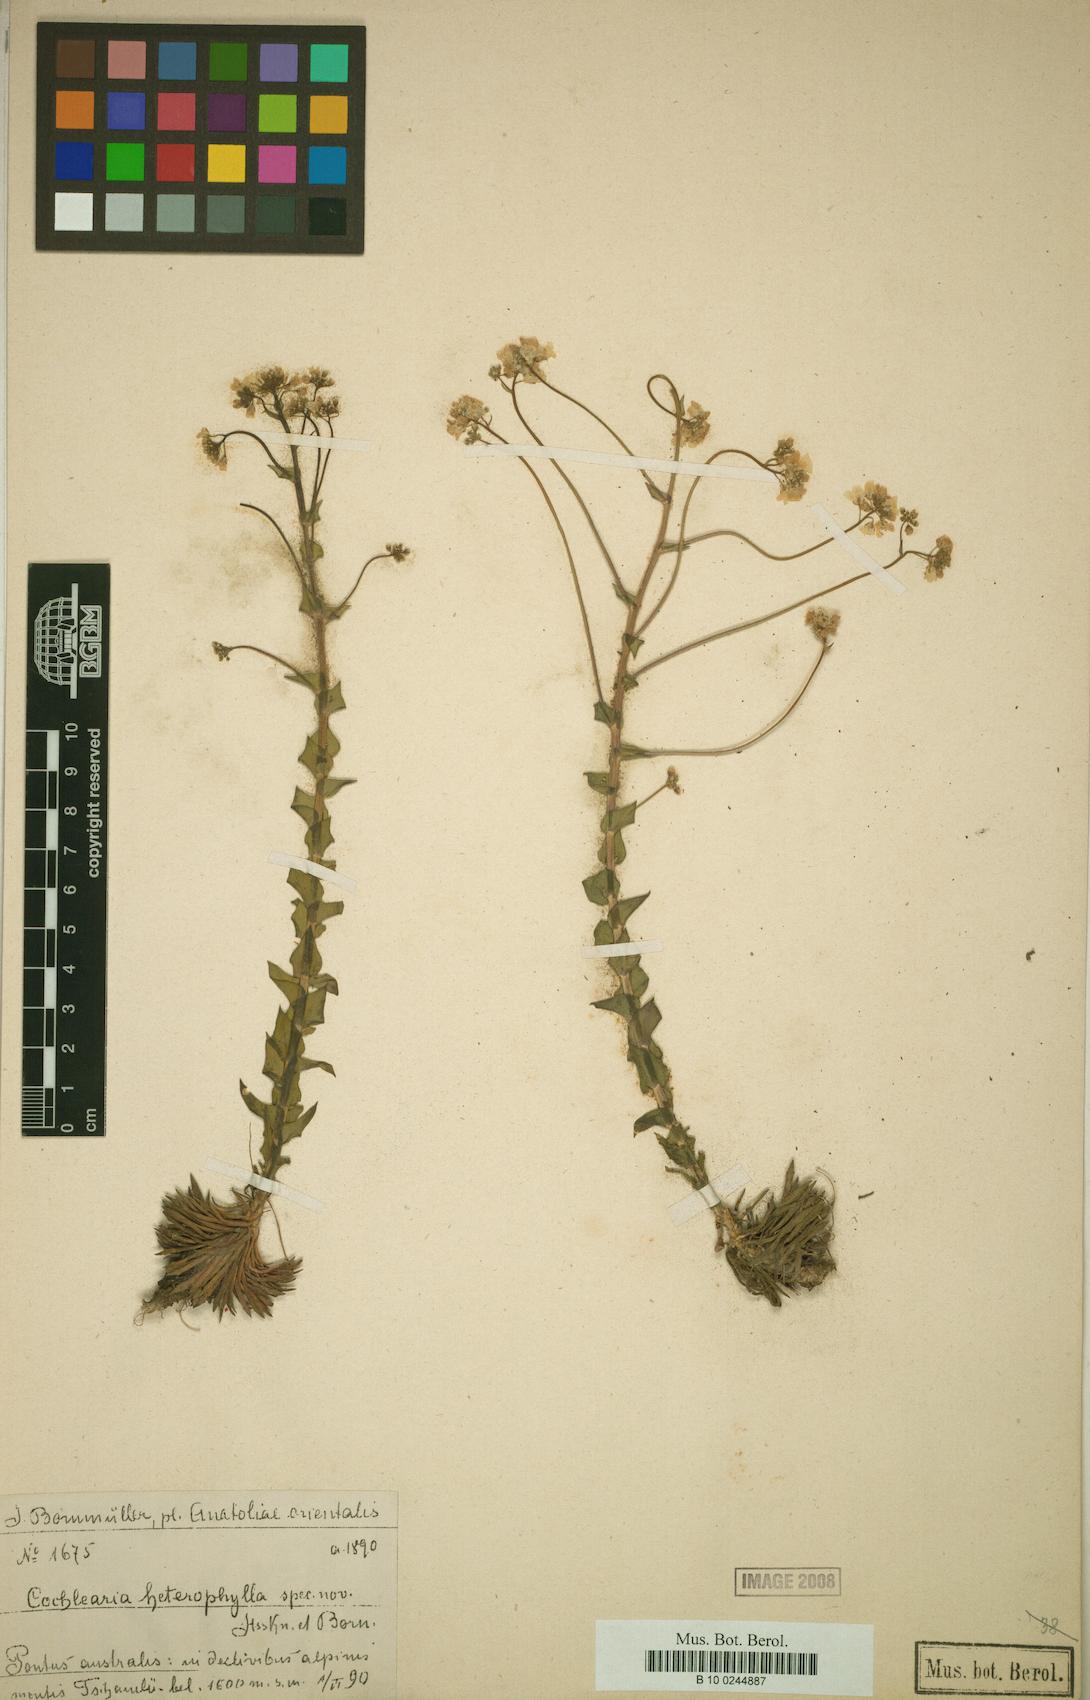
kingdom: Plantae
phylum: Tracheophyta
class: Magnoliopsida
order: Brassicales
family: Brassicaceae
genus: Pseudosempervivum
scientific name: Pseudosempervivum aucheri
